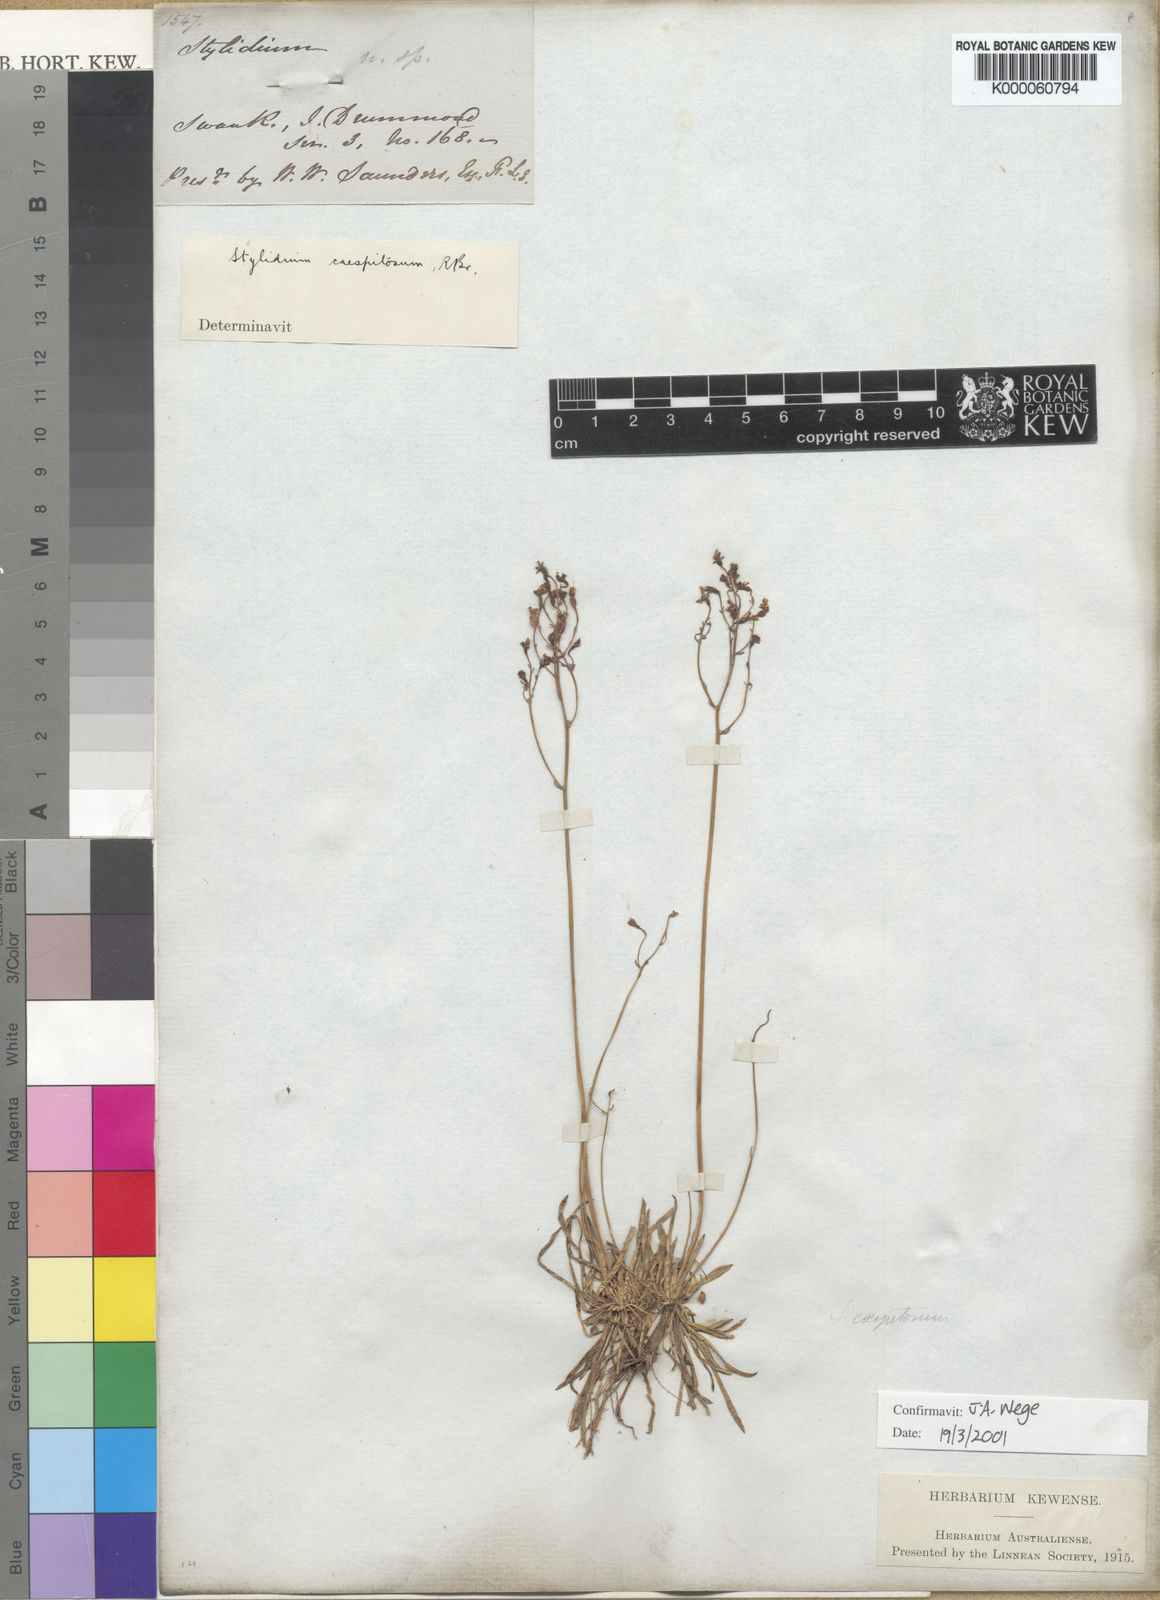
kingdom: Plantae
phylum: Tracheophyta
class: Magnoliopsida
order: Asterales
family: Stylidiaceae
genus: Stylidium
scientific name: Stylidium caespitosum
